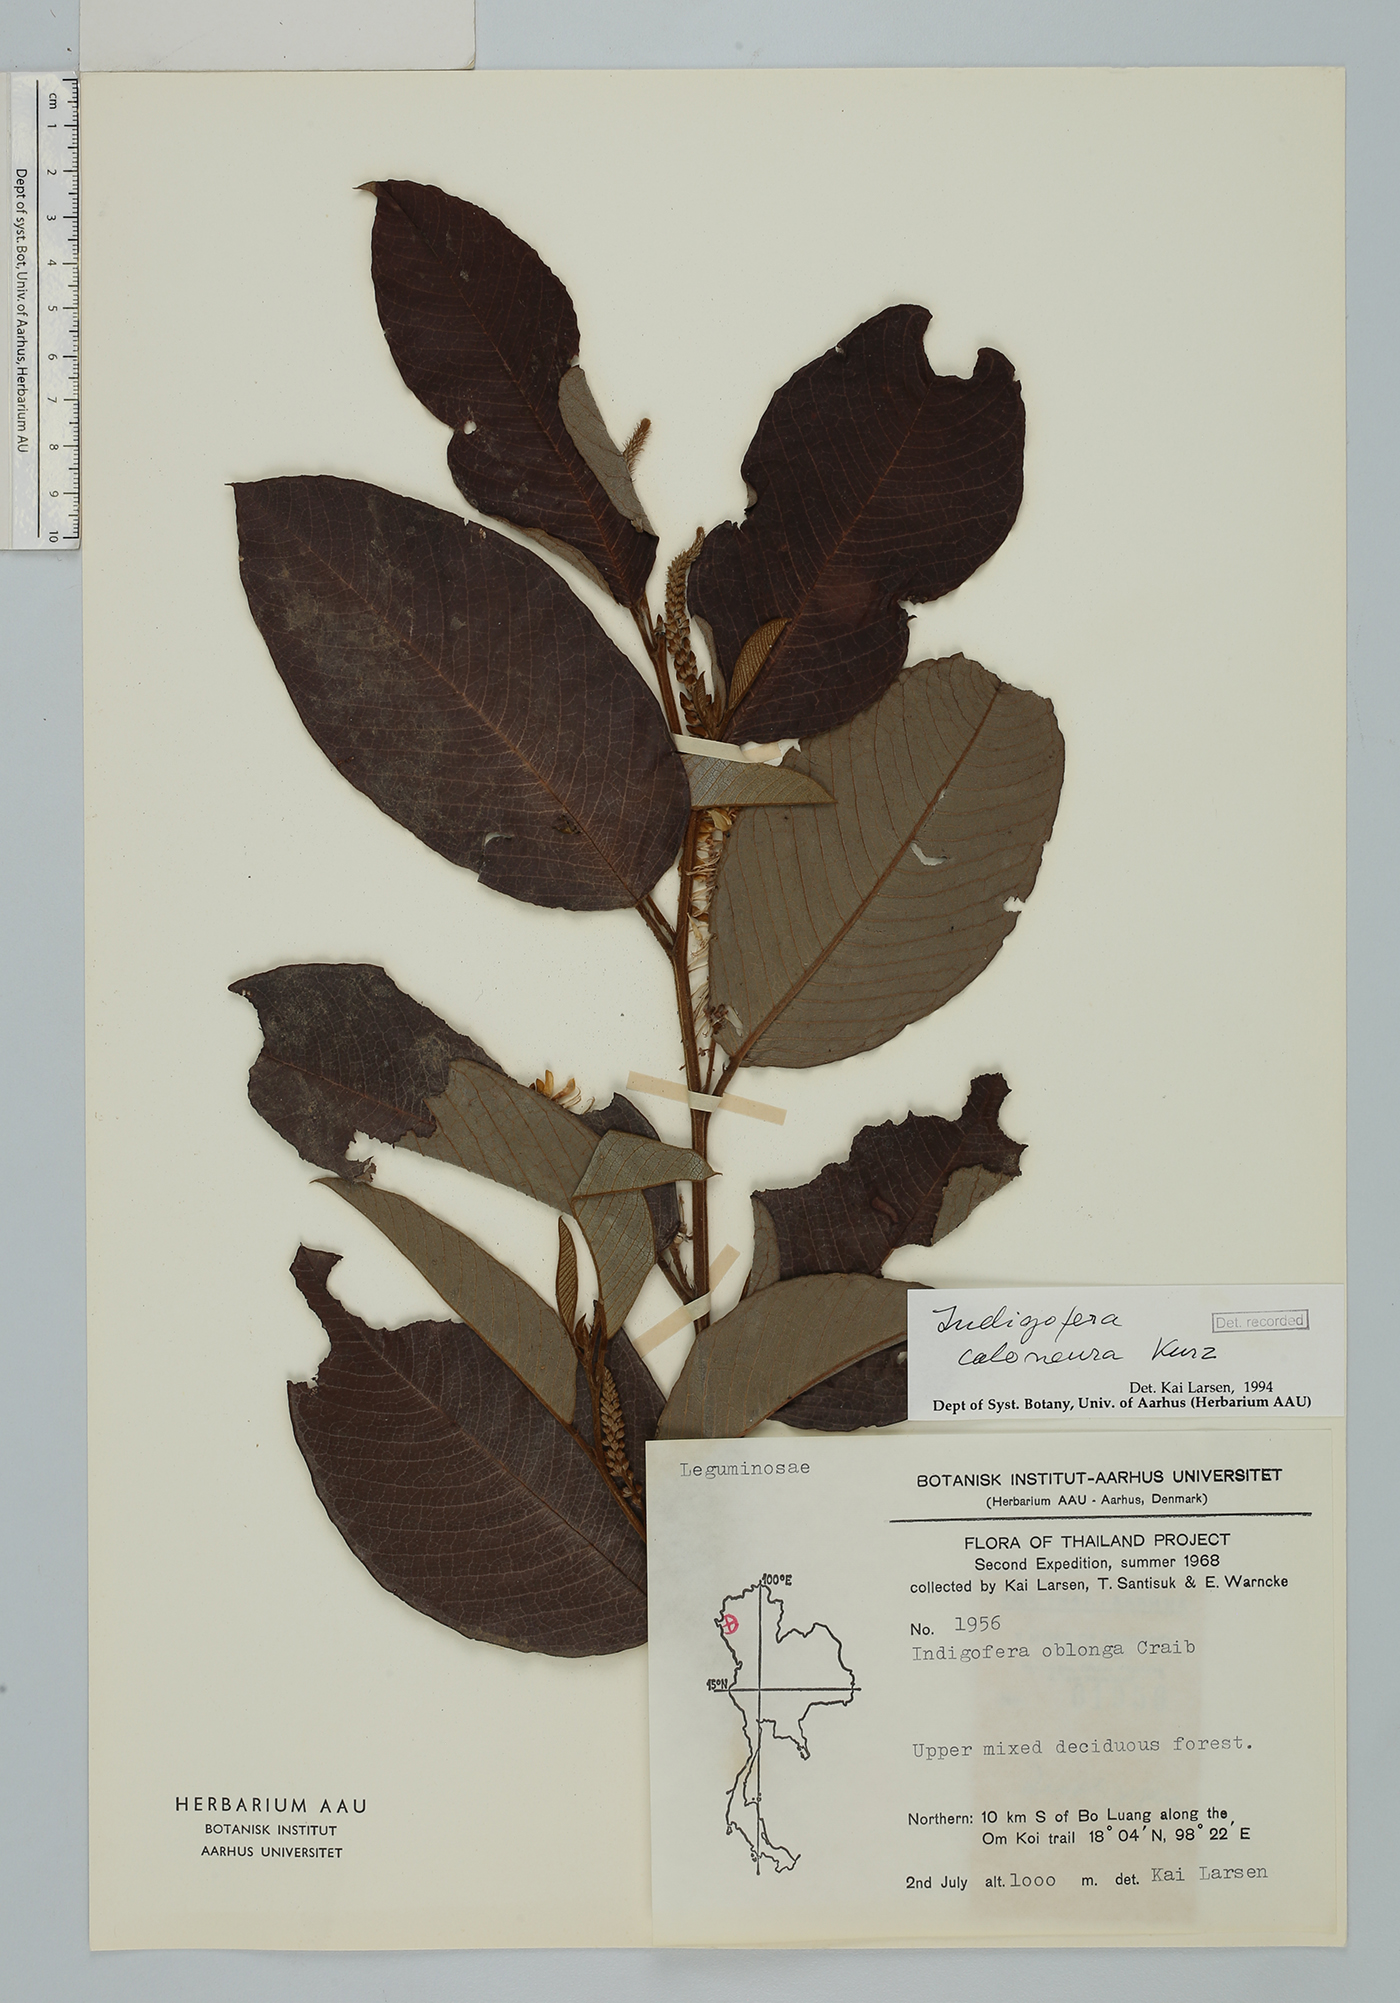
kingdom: Plantae
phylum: Tracheophyta
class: Magnoliopsida
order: Fabales
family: Fabaceae
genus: Indigofera
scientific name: Indigofera caloneura
